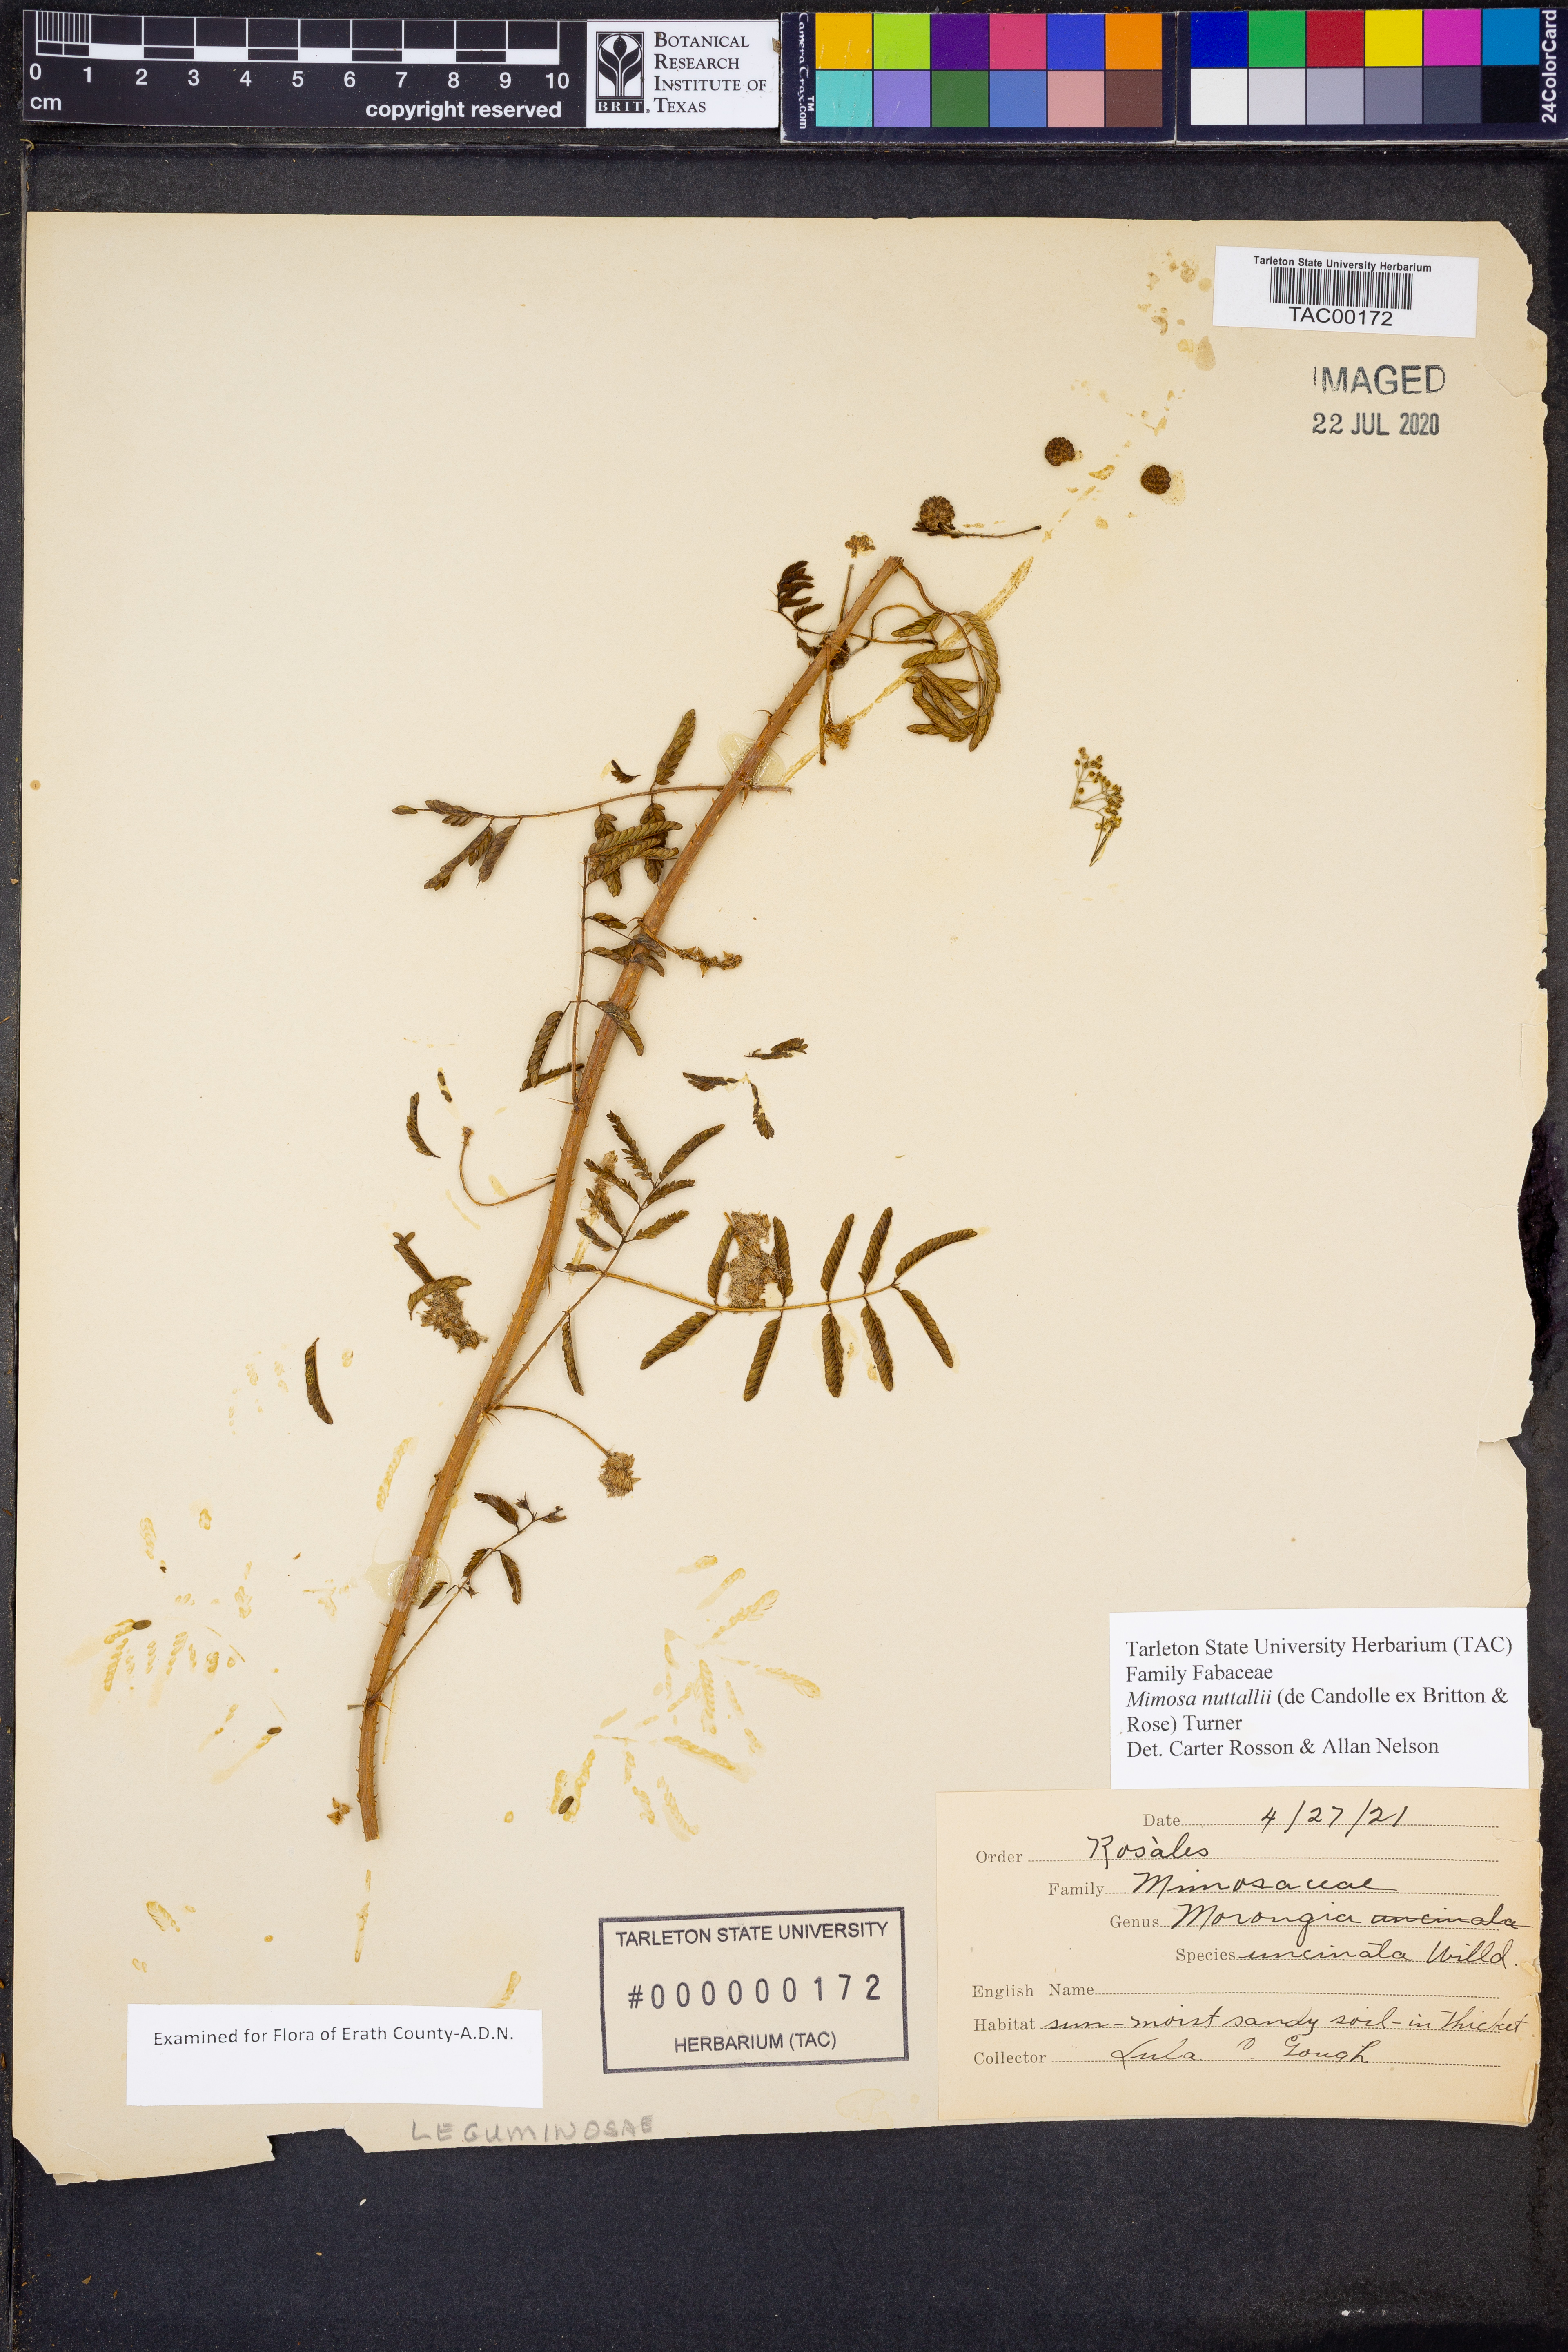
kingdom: Plantae
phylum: Tracheophyta
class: Magnoliopsida
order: Fabales
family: Fabaceae
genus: Mimosa
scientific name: Mimosa quadrivalvis
